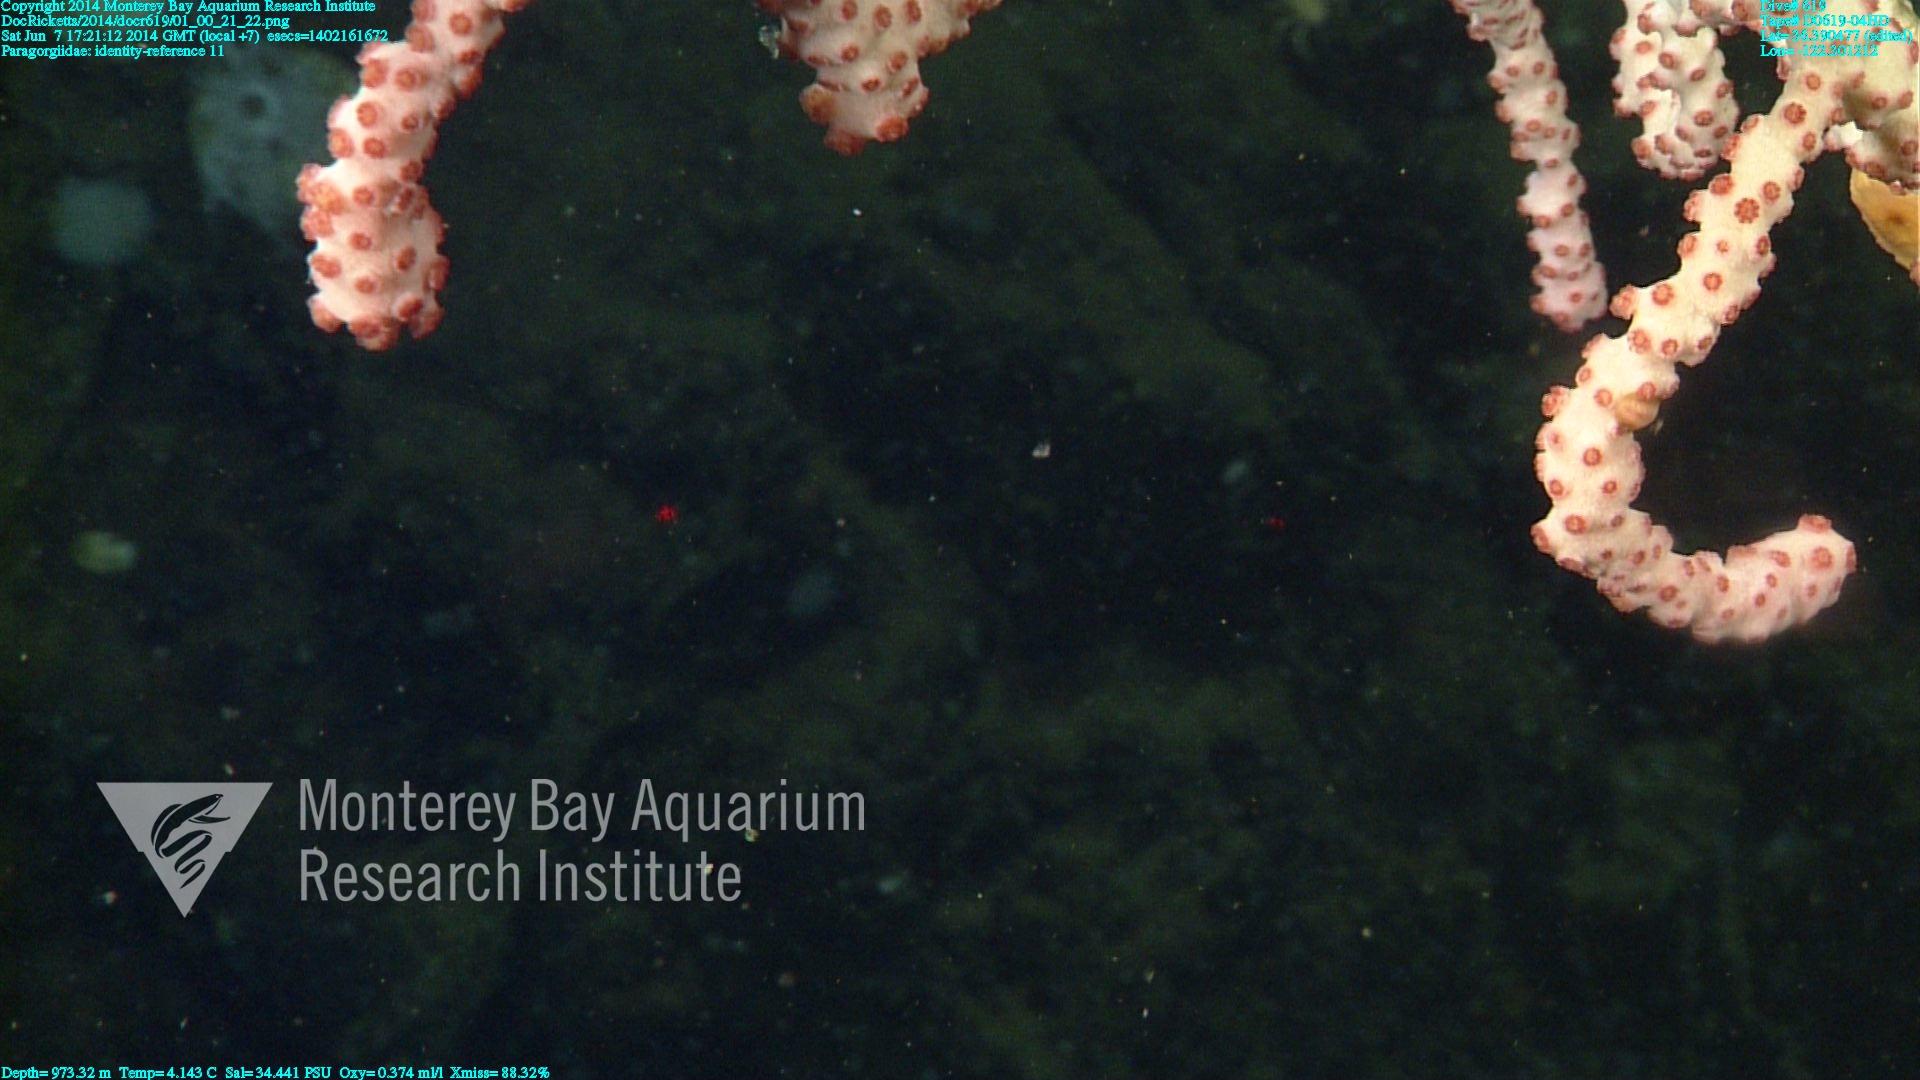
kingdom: Animalia
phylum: Cnidaria
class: Anthozoa
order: Scleralcyonacea
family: Coralliidae
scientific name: Coralliidae
